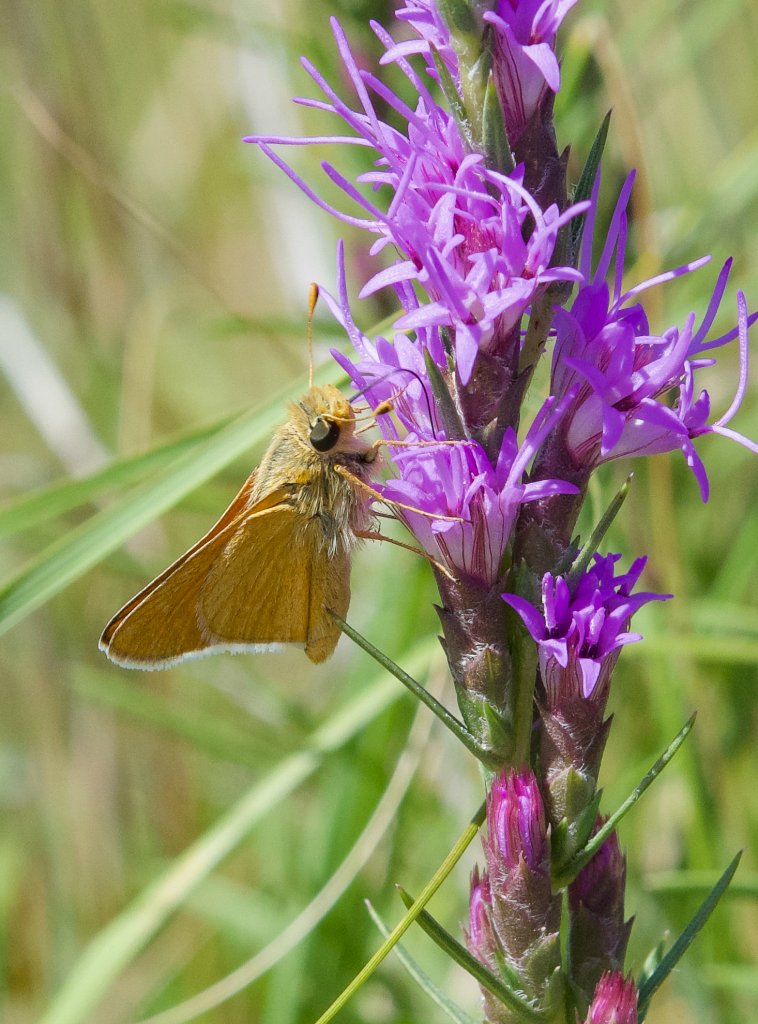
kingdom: Animalia
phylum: Arthropoda
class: Insecta
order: Lepidoptera
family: Hesperiidae
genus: Atrytone
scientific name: Atrytone delaware
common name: Delaware Skipper
